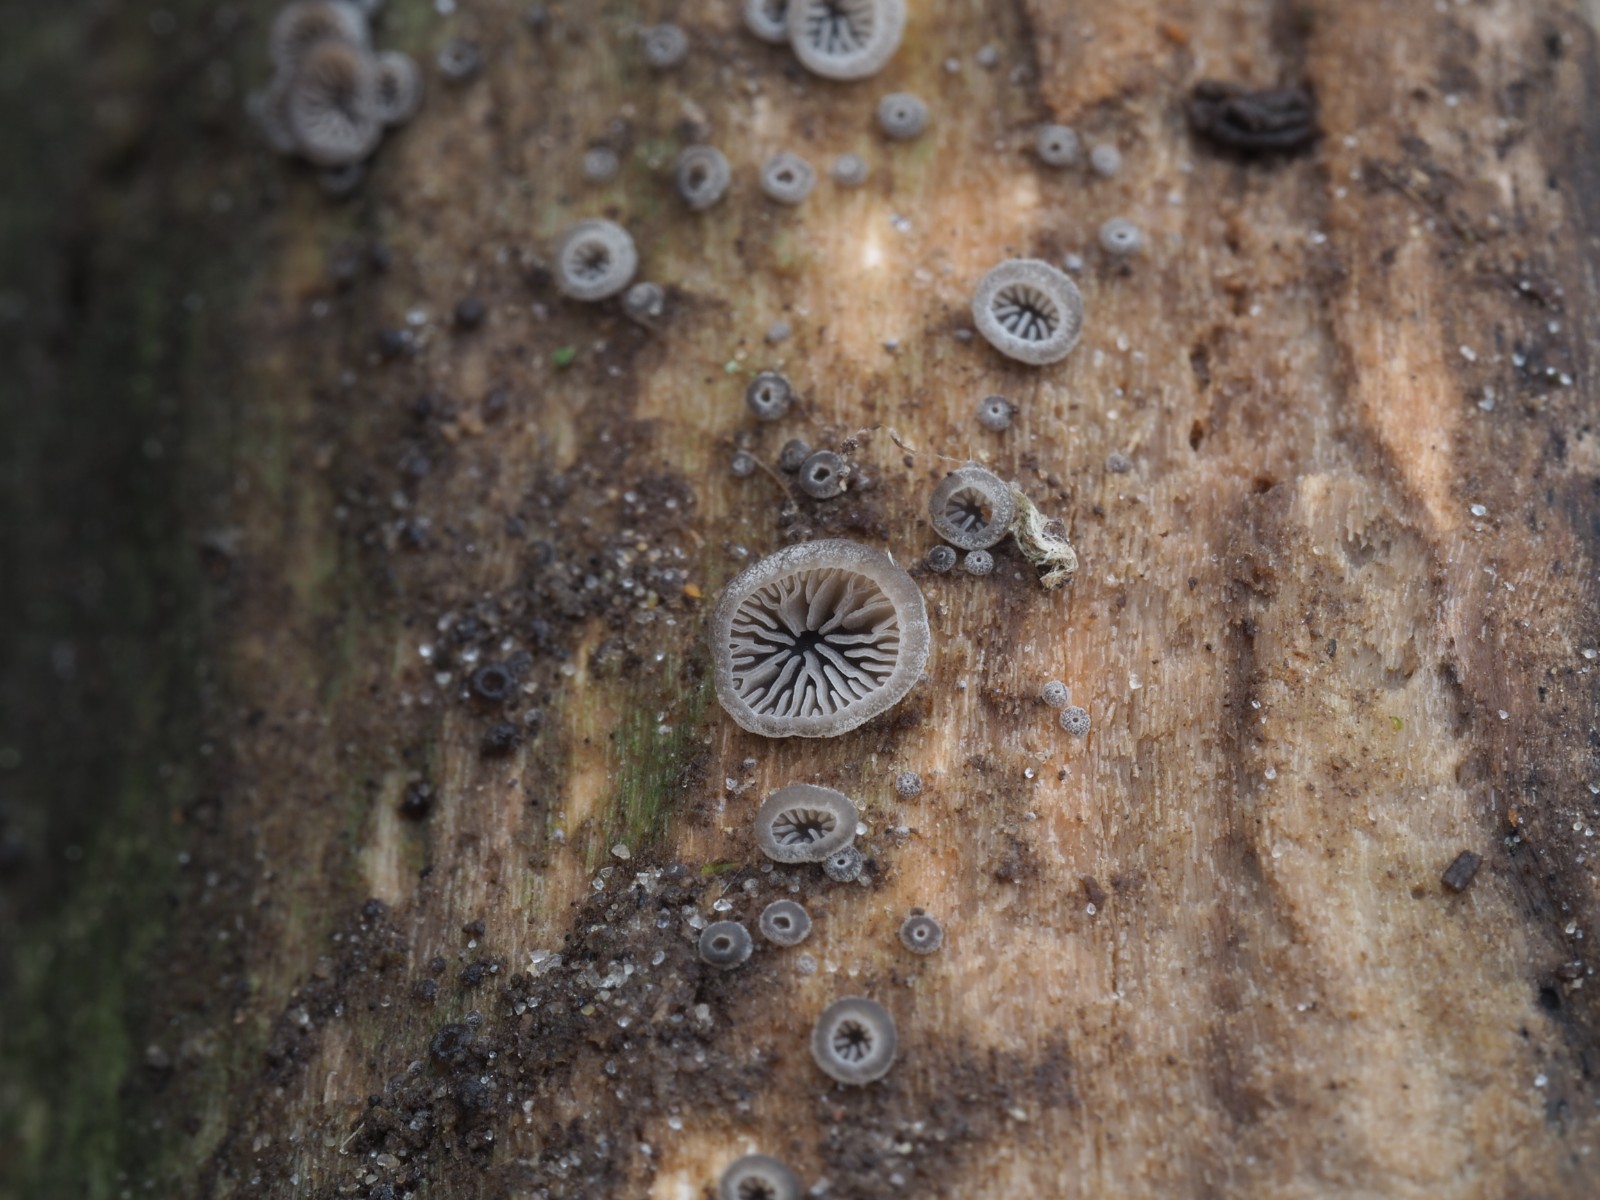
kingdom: Fungi
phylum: Basidiomycota
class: Agaricomycetes
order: Agaricales
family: Pleurotaceae
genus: Resupinatus
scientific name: Resupinatus
